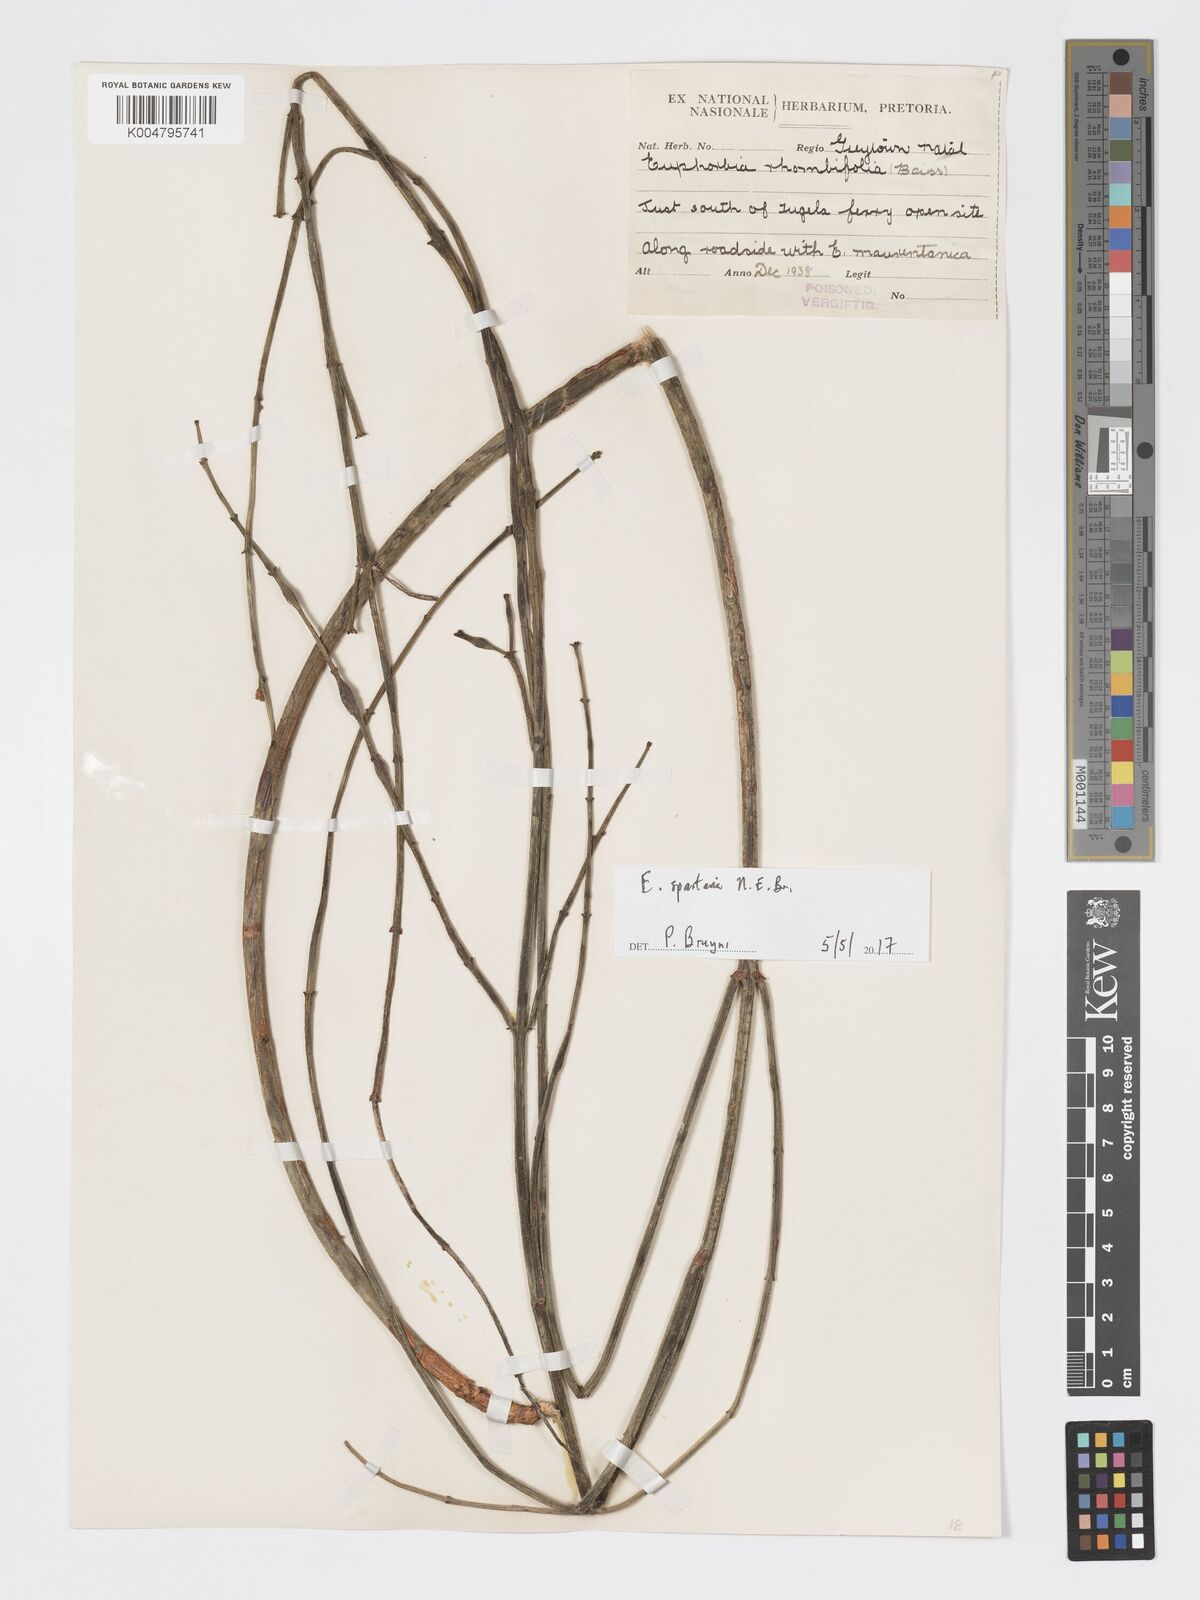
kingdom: Plantae
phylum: Tracheophyta
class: Magnoliopsida
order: Malpighiales
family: Euphorbiaceae
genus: Euphorbia
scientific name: Euphorbia spartaria
